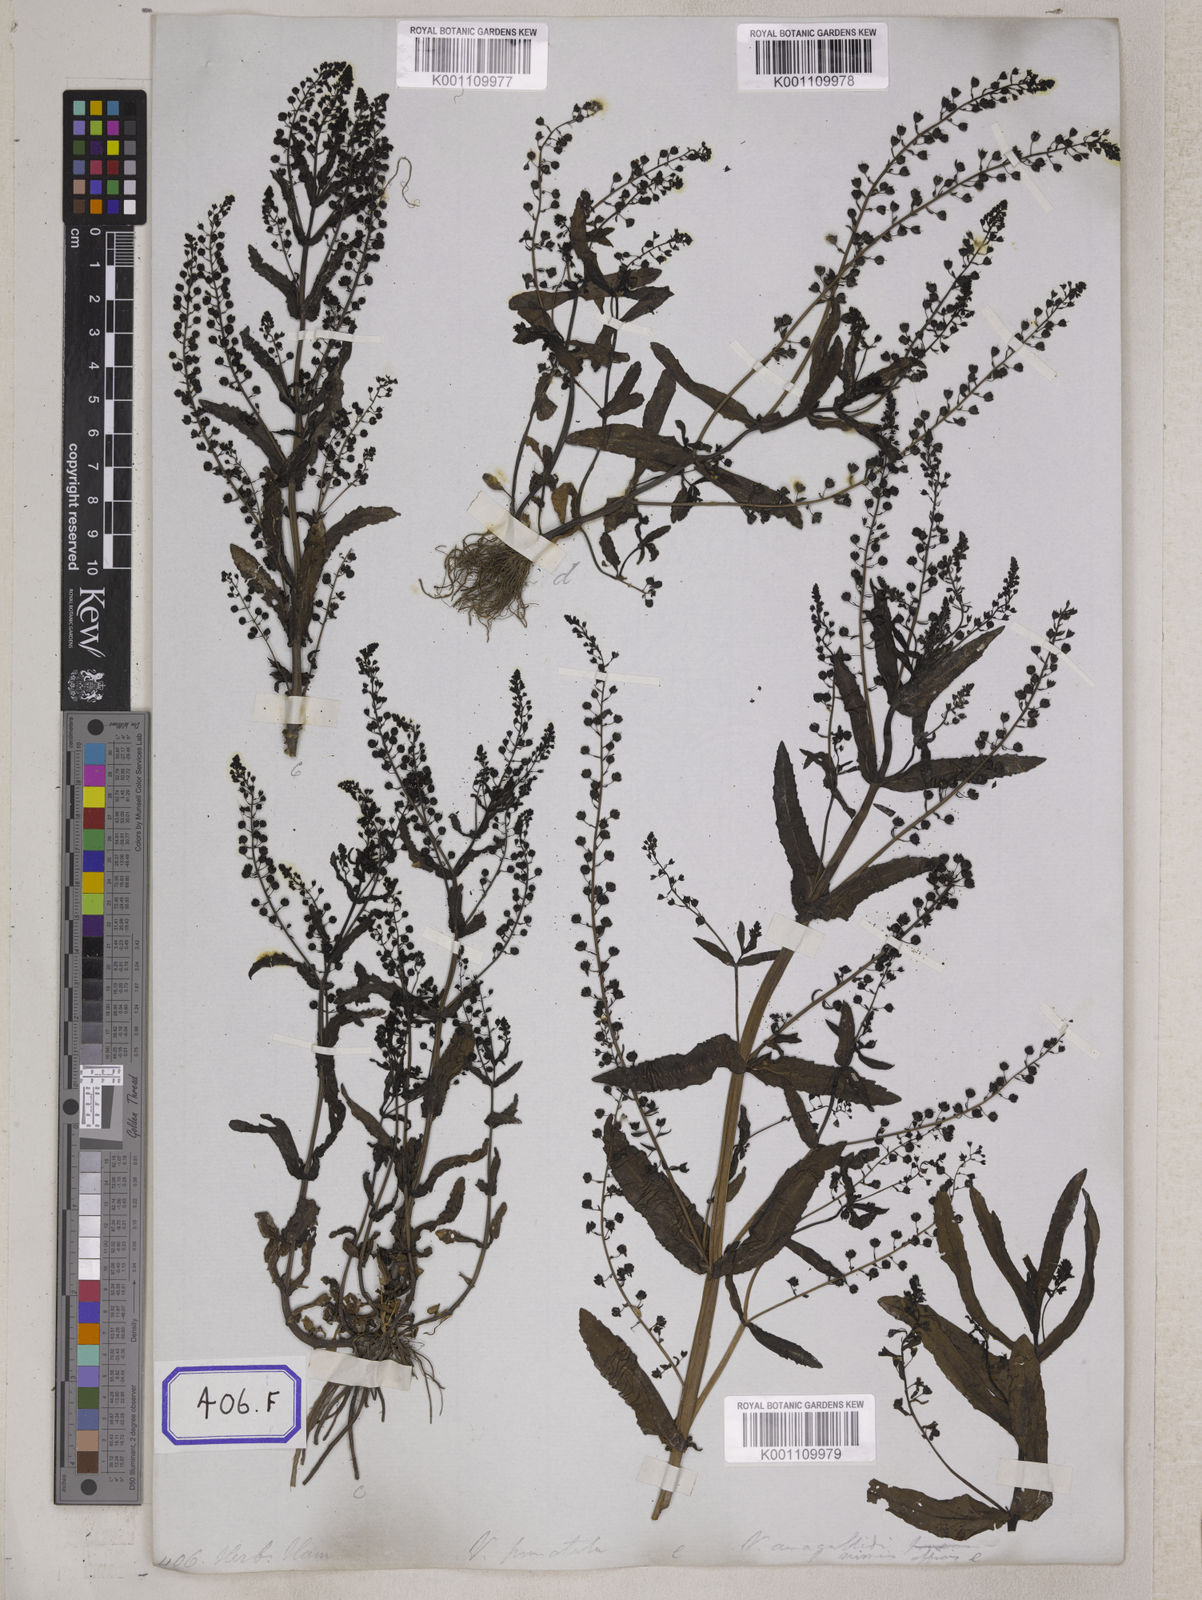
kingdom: Plantae
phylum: Tracheophyta
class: Magnoliopsida
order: Lamiales
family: Plantaginaceae
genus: Veronica
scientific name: Veronica undulata
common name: Undulate speedwell
